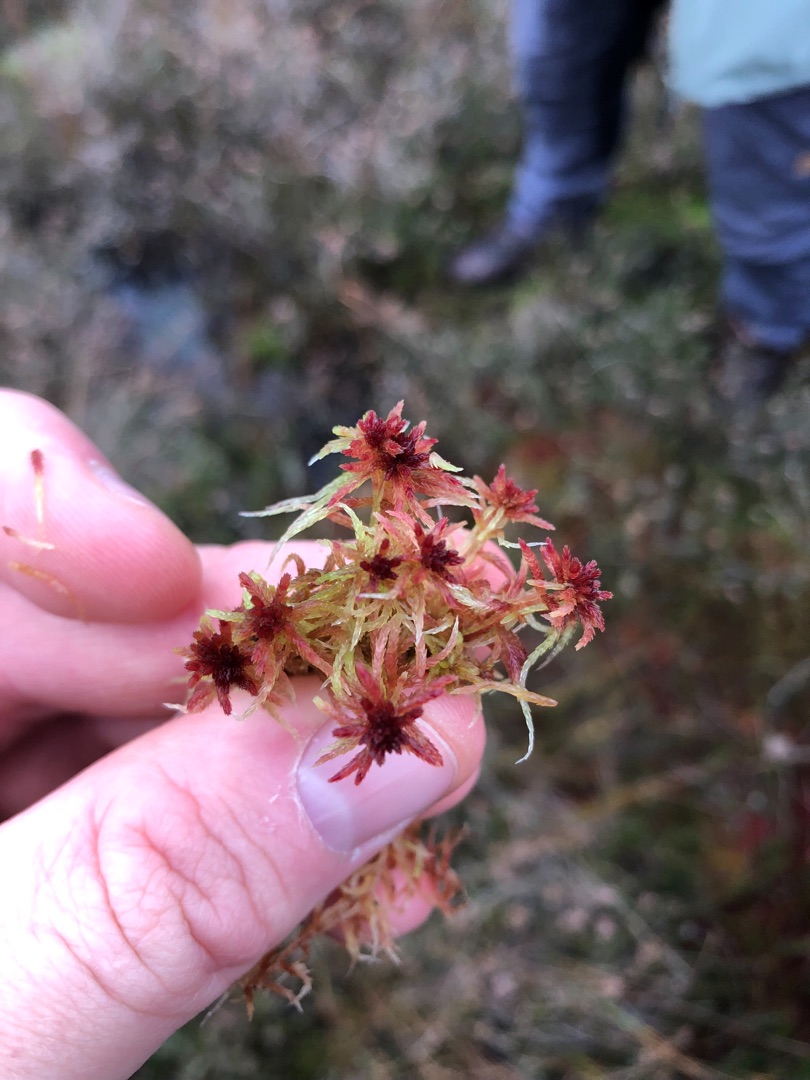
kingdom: Plantae
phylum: Bryophyta
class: Sphagnopsida
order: Sphagnales
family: Sphagnaceae
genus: Sphagnum
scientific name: Sphagnum rubellum
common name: Kohorns-tørvemos
